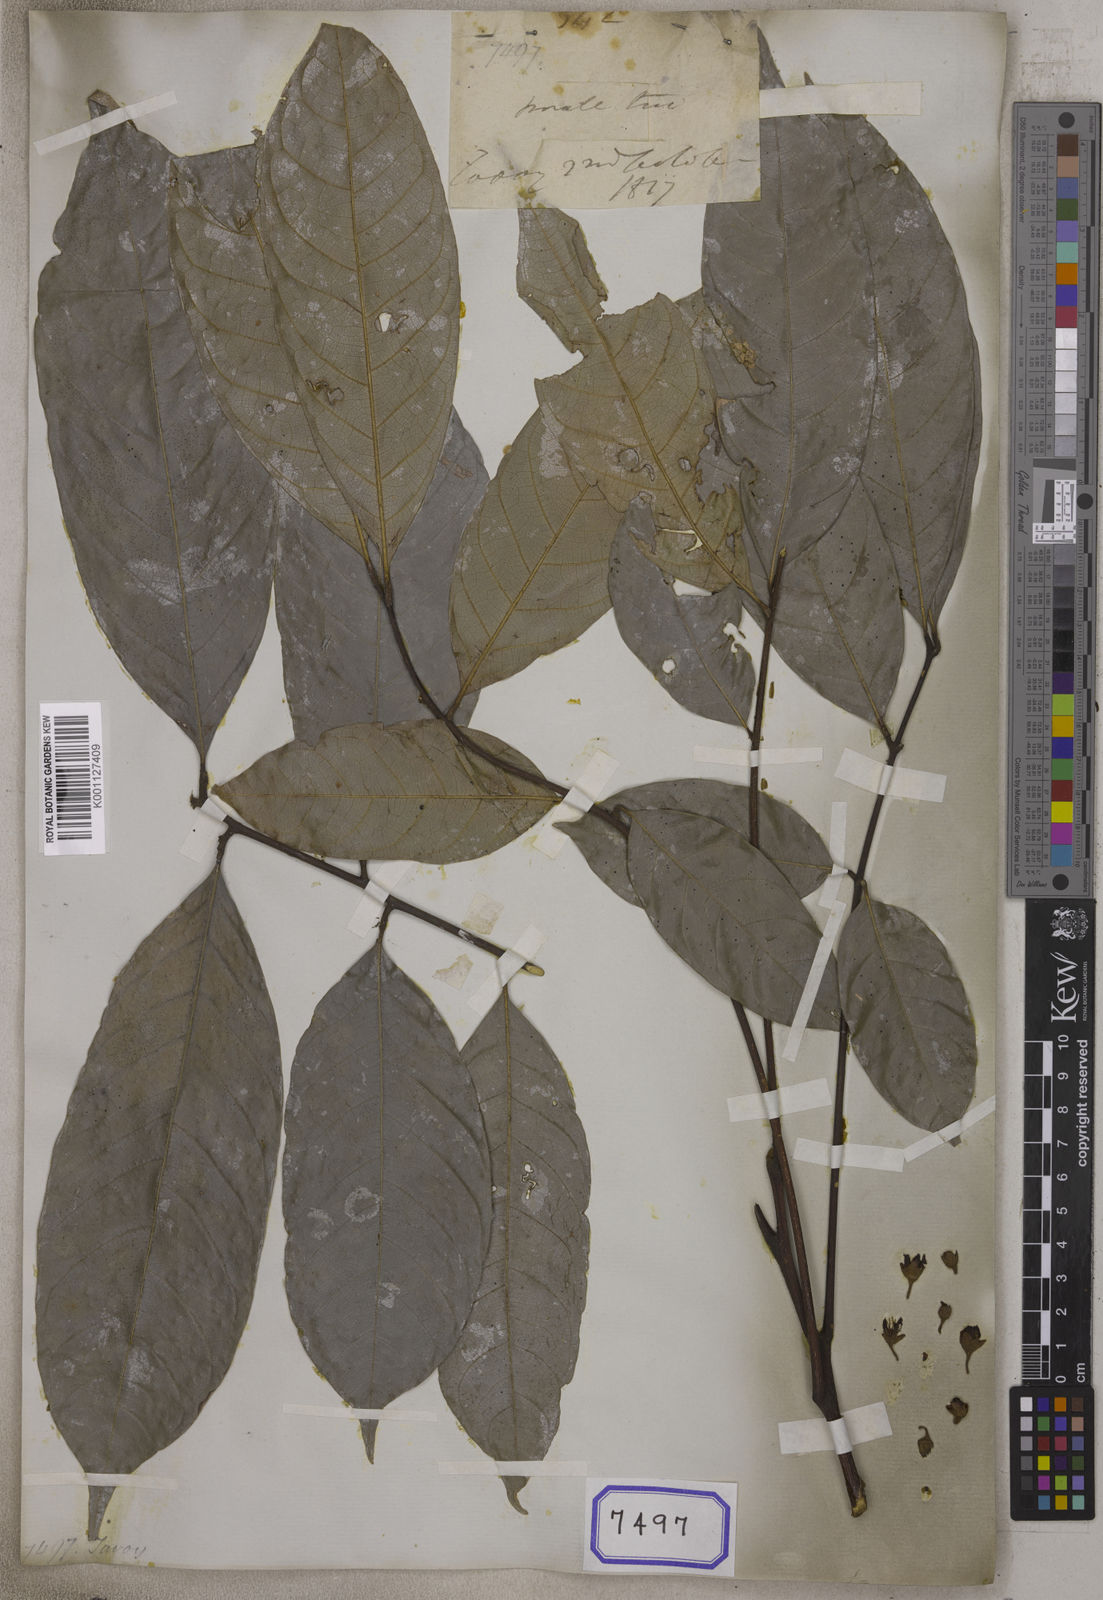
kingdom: Plantae
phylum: Tracheophyta
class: Magnoliopsida
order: Sapindales
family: Sapindaceae
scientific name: Sapindaceae
